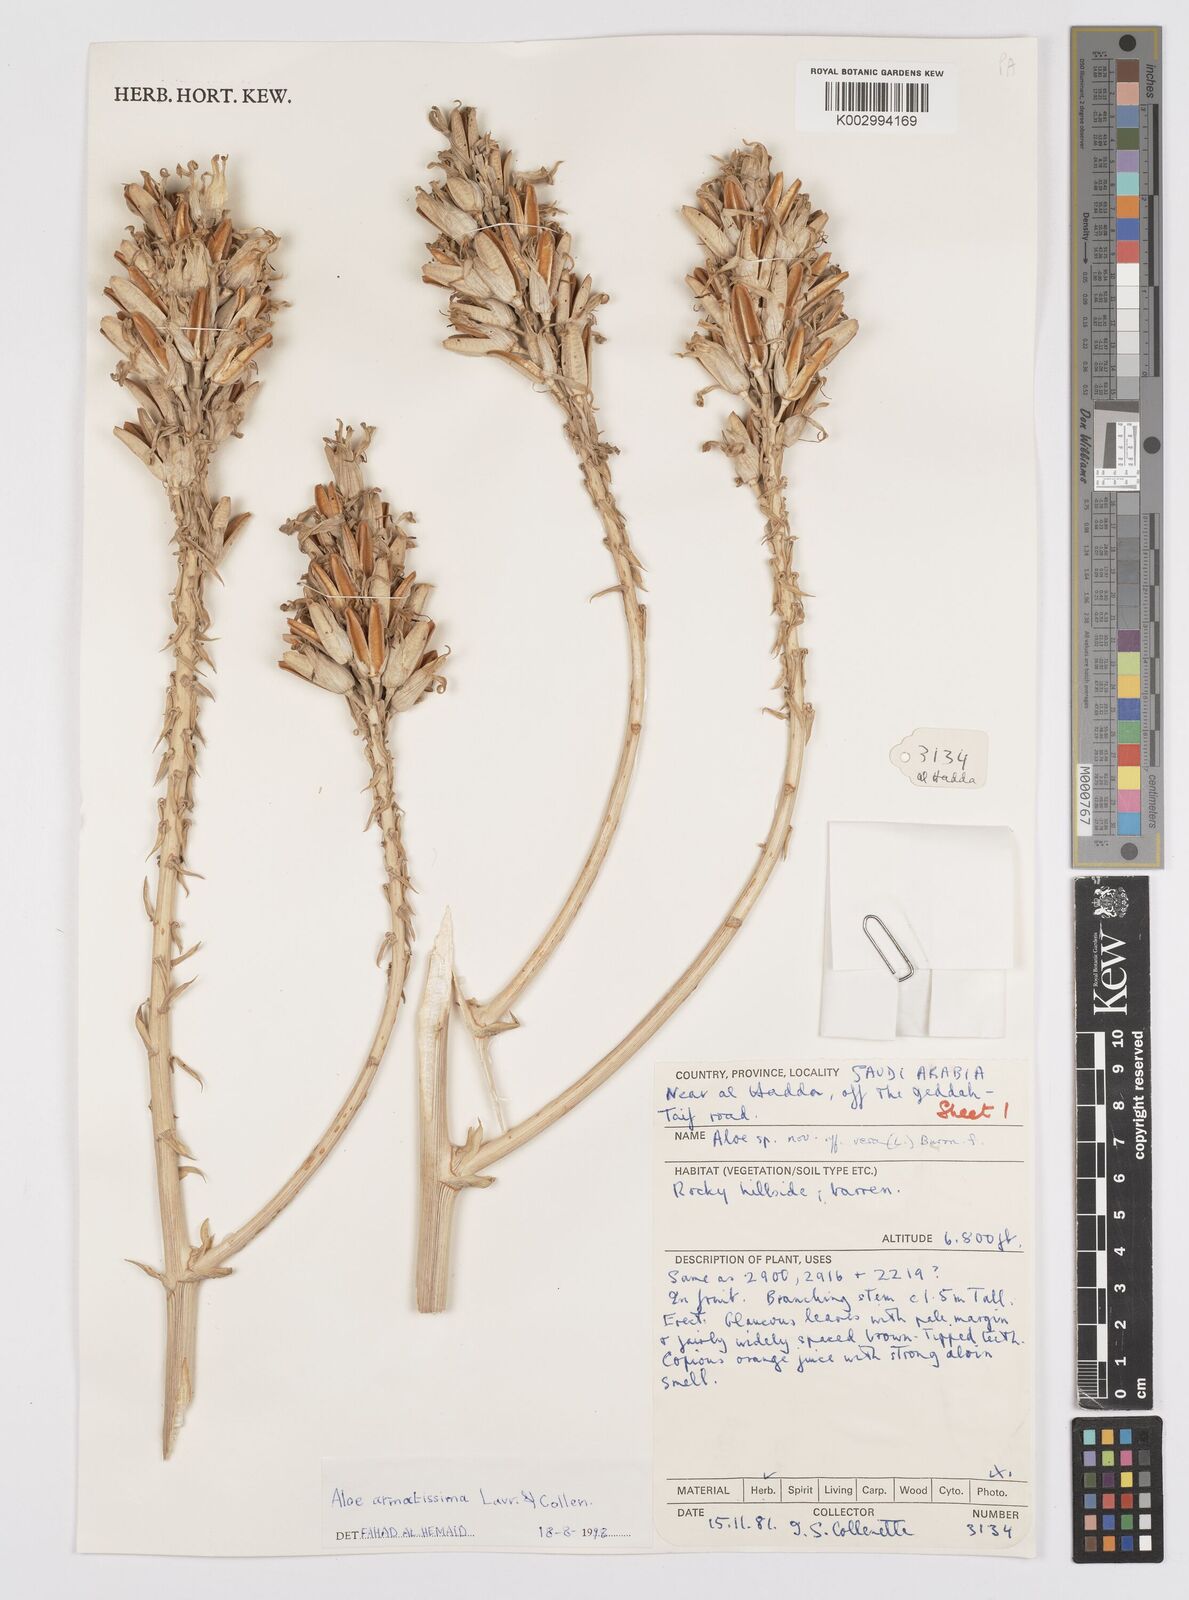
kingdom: Plantae
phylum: Tracheophyta
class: Liliopsida
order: Asparagales
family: Asphodelaceae
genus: Aloe
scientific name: Aloe armatissima
